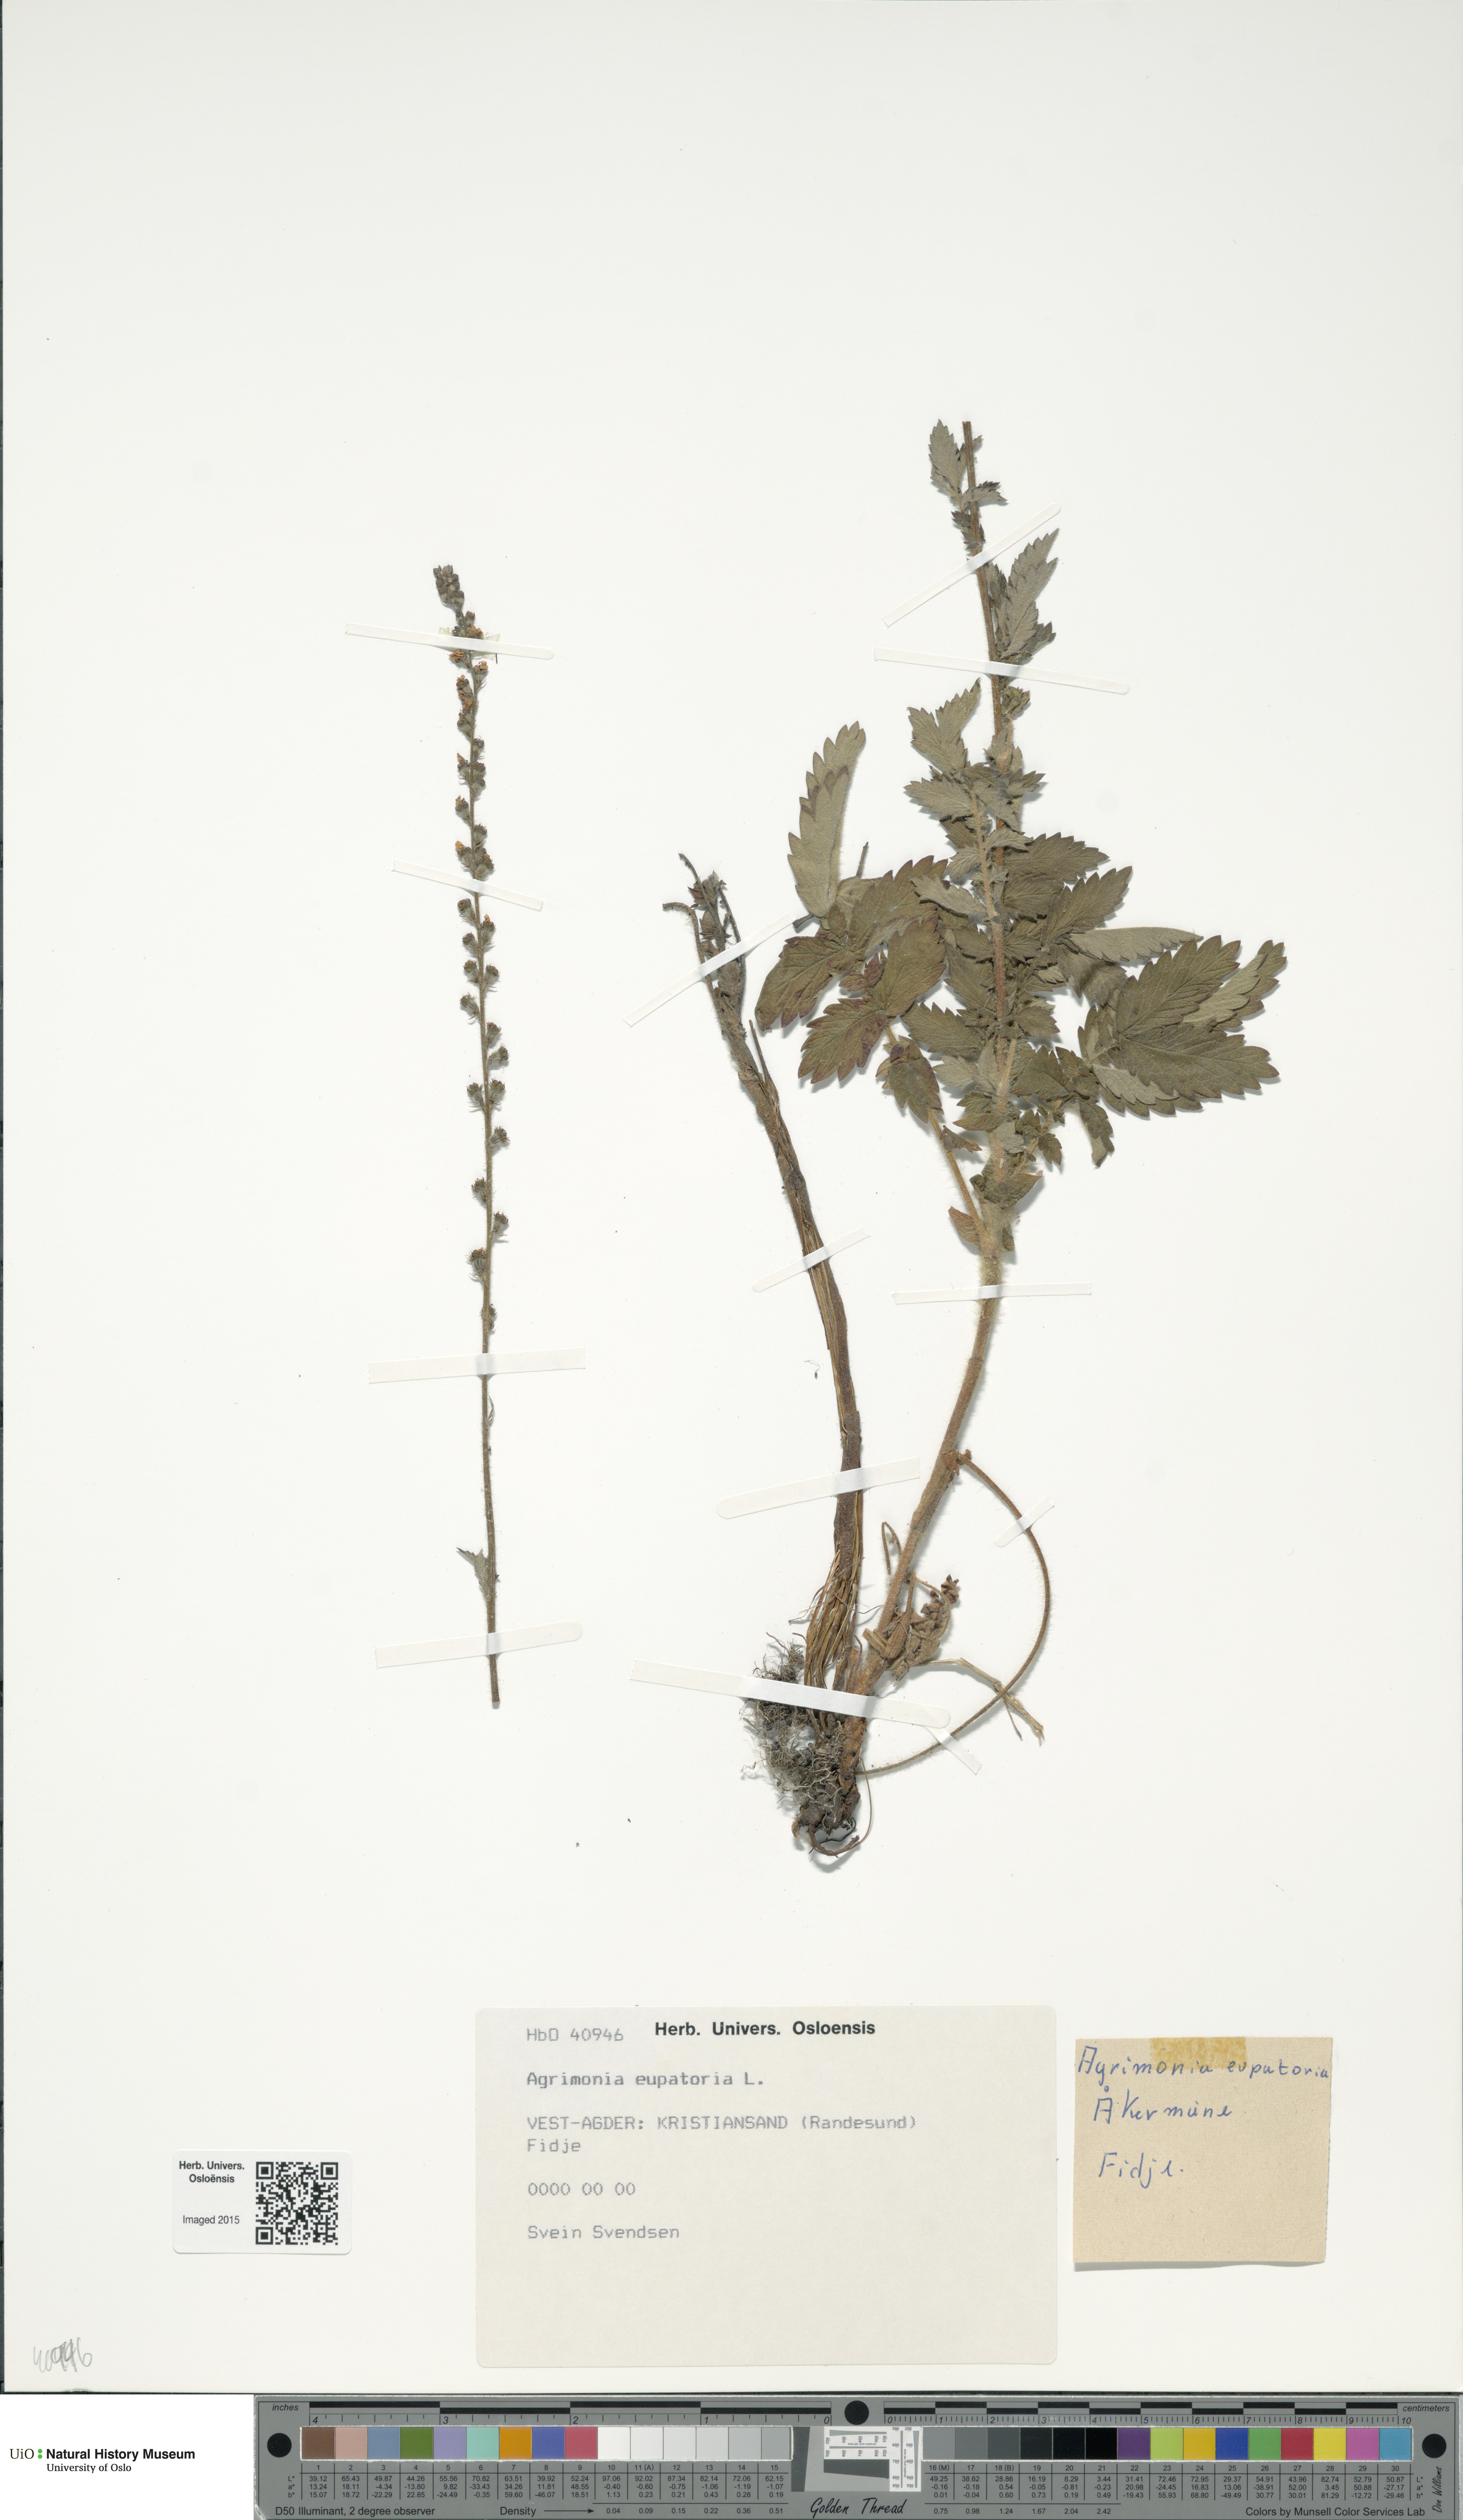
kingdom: Plantae
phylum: Tracheophyta
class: Magnoliopsida
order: Rosales
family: Rosaceae
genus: Agrimonia
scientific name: Agrimonia eupatoria
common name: Agrimony
